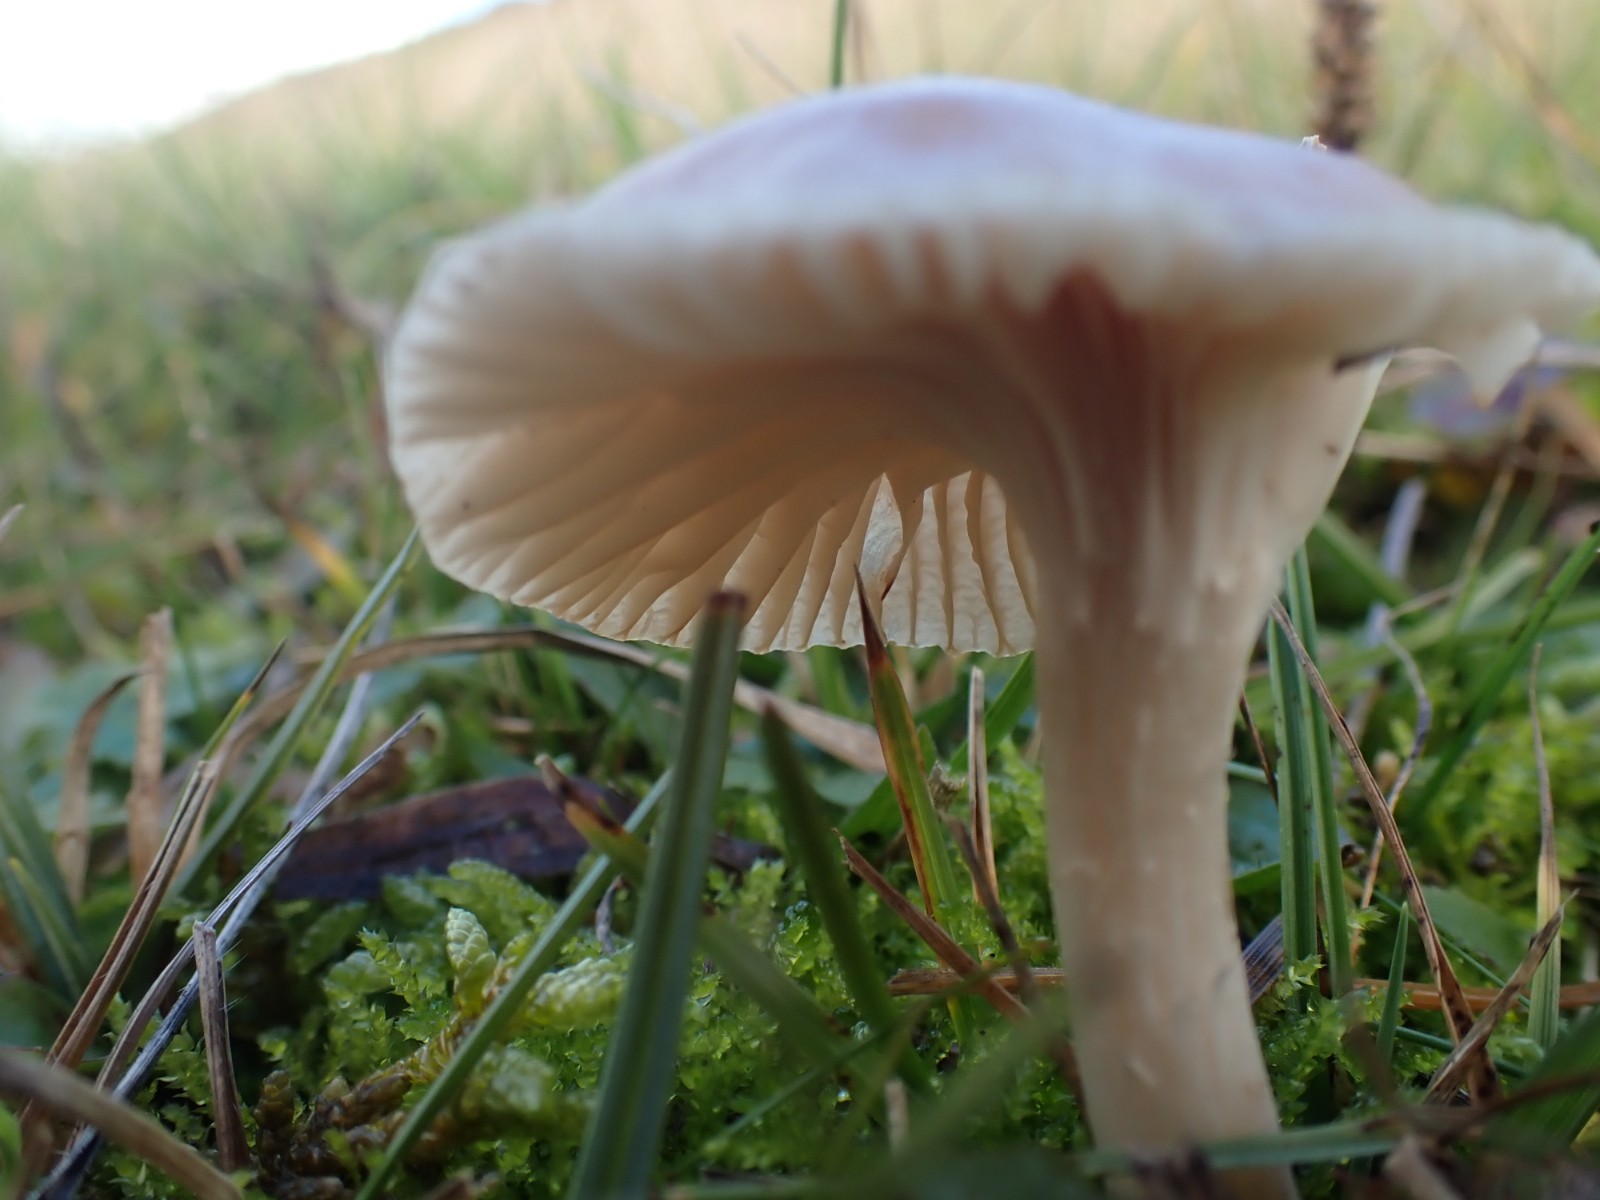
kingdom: Fungi
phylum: Basidiomycota
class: Agaricomycetes
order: Agaricales
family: Hygrophoraceae
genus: Cuphophyllus
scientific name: Cuphophyllus colemannianus
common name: rødbrun vokshat
